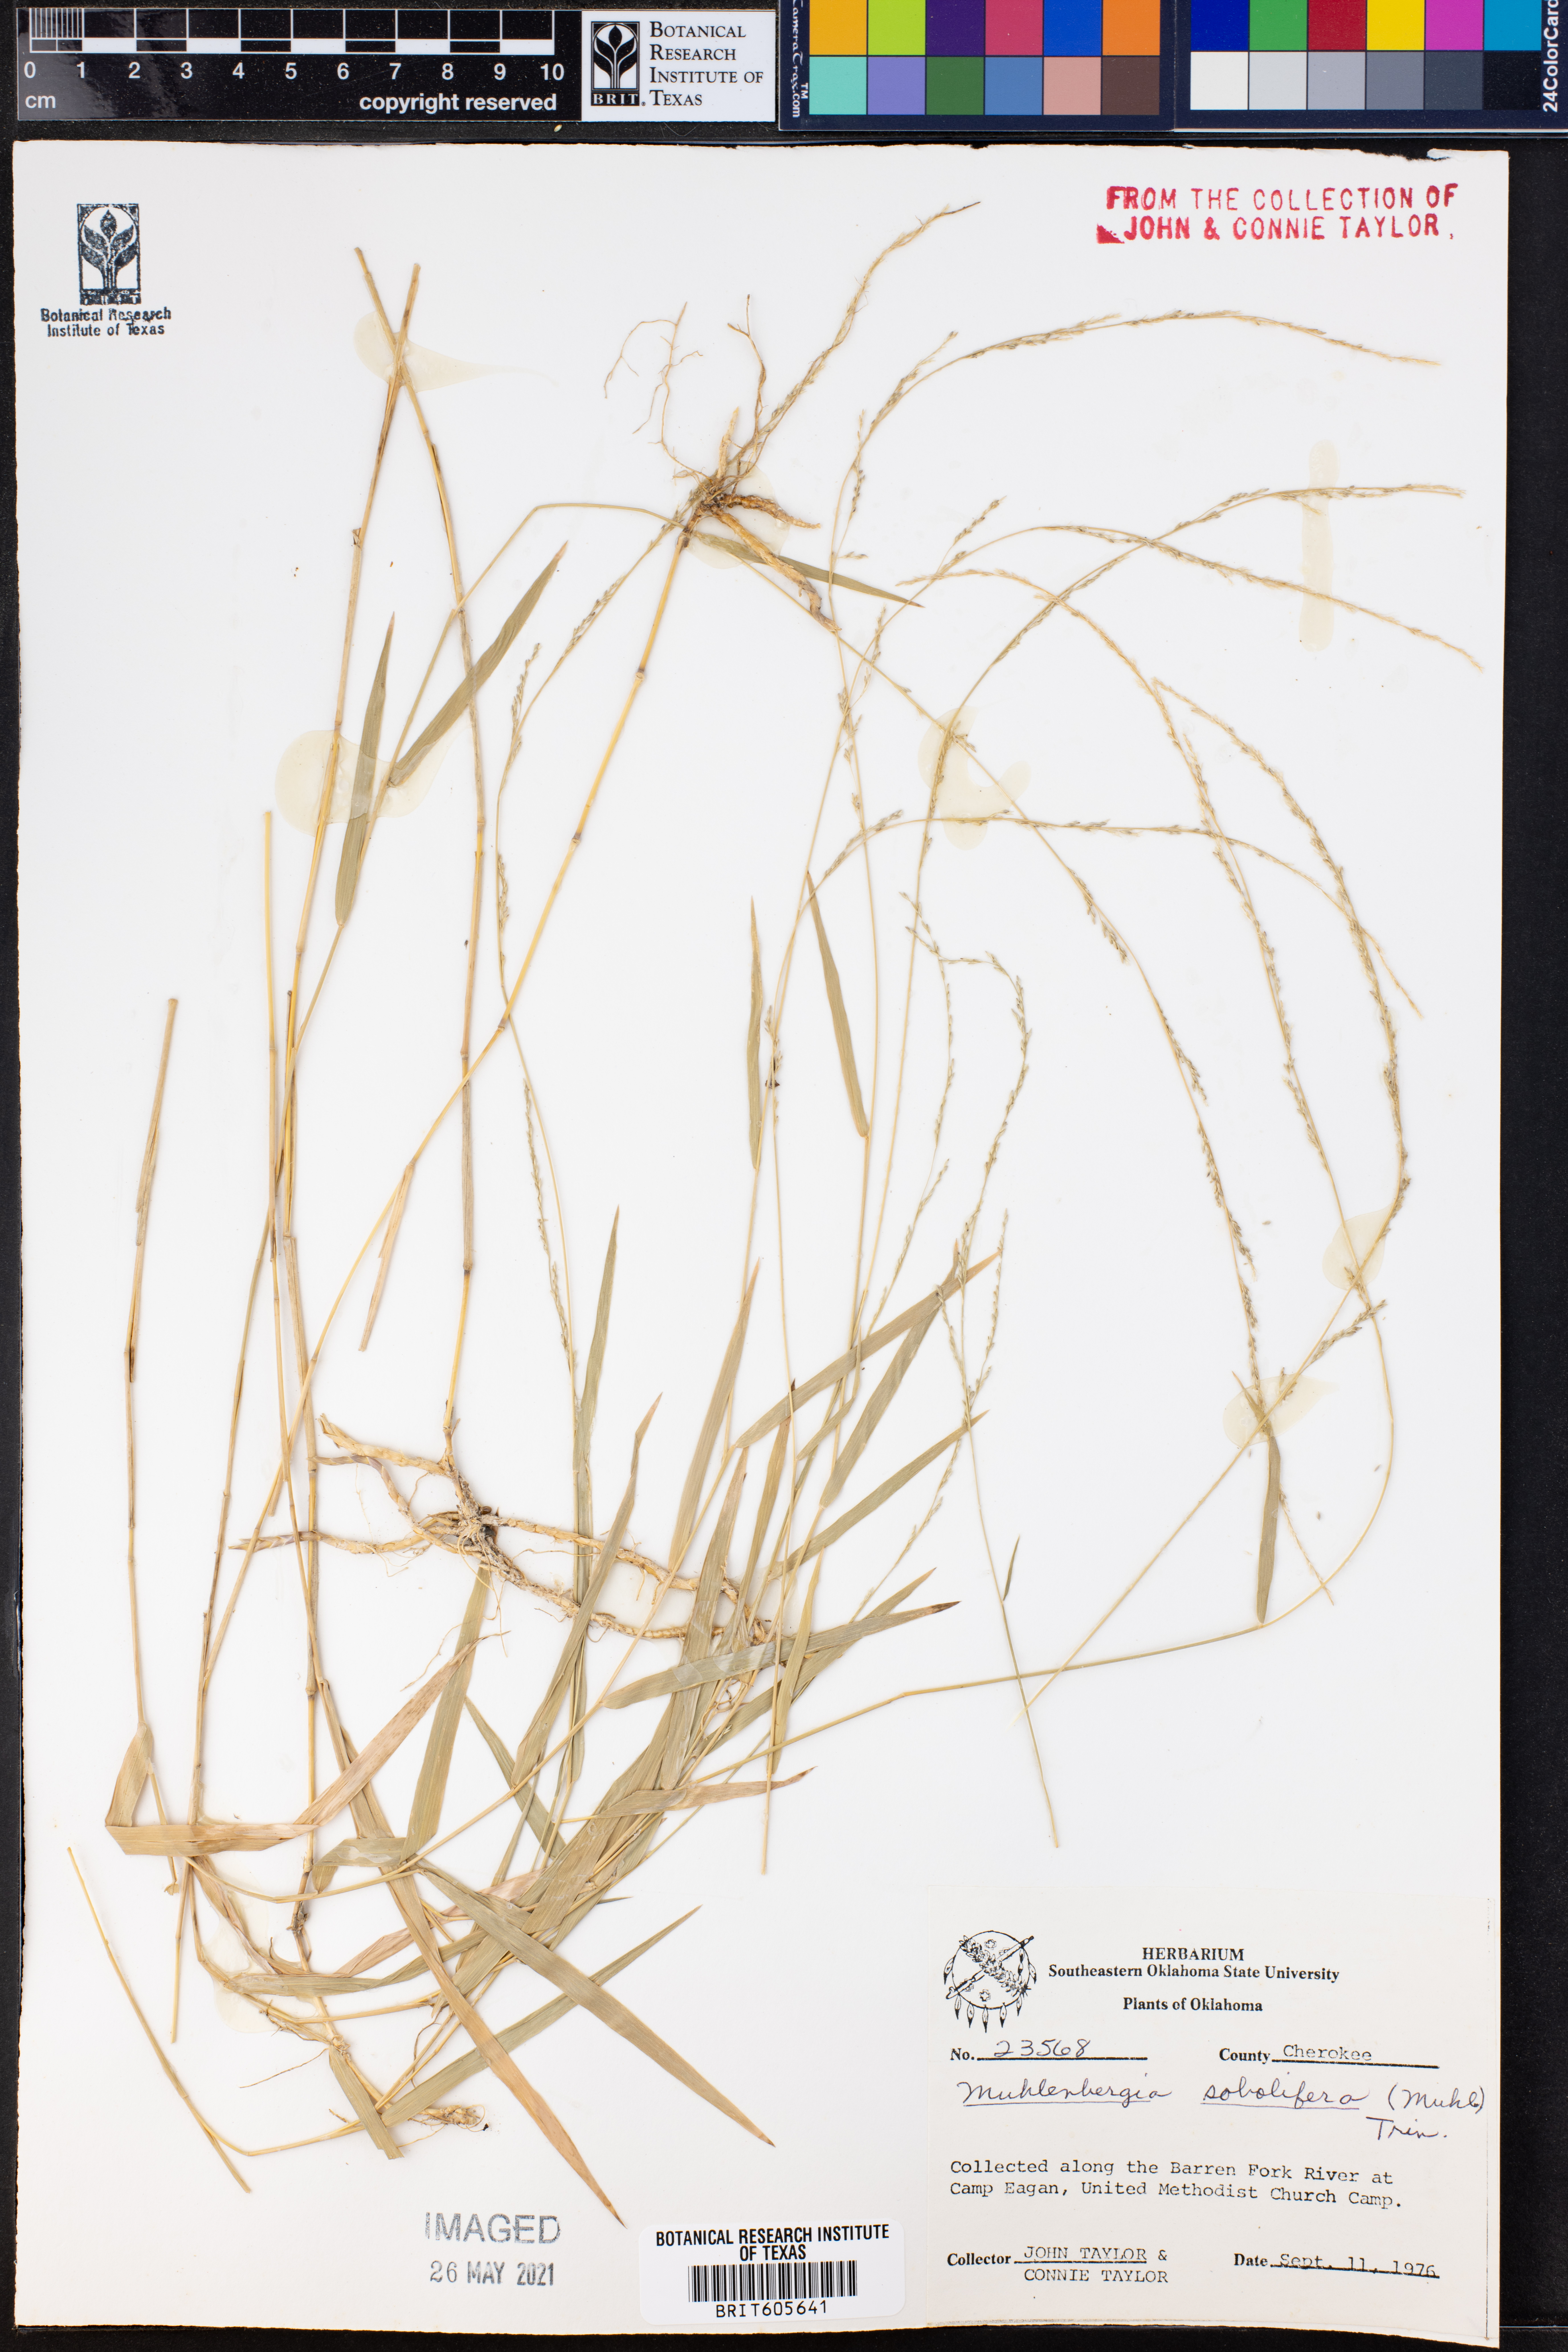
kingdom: Plantae
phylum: Tracheophyta
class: Liliopsida
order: Poales
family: Poaceae
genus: Muhlenbergia
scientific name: Muhlenbergia sobolifera
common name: Creeping muhly
